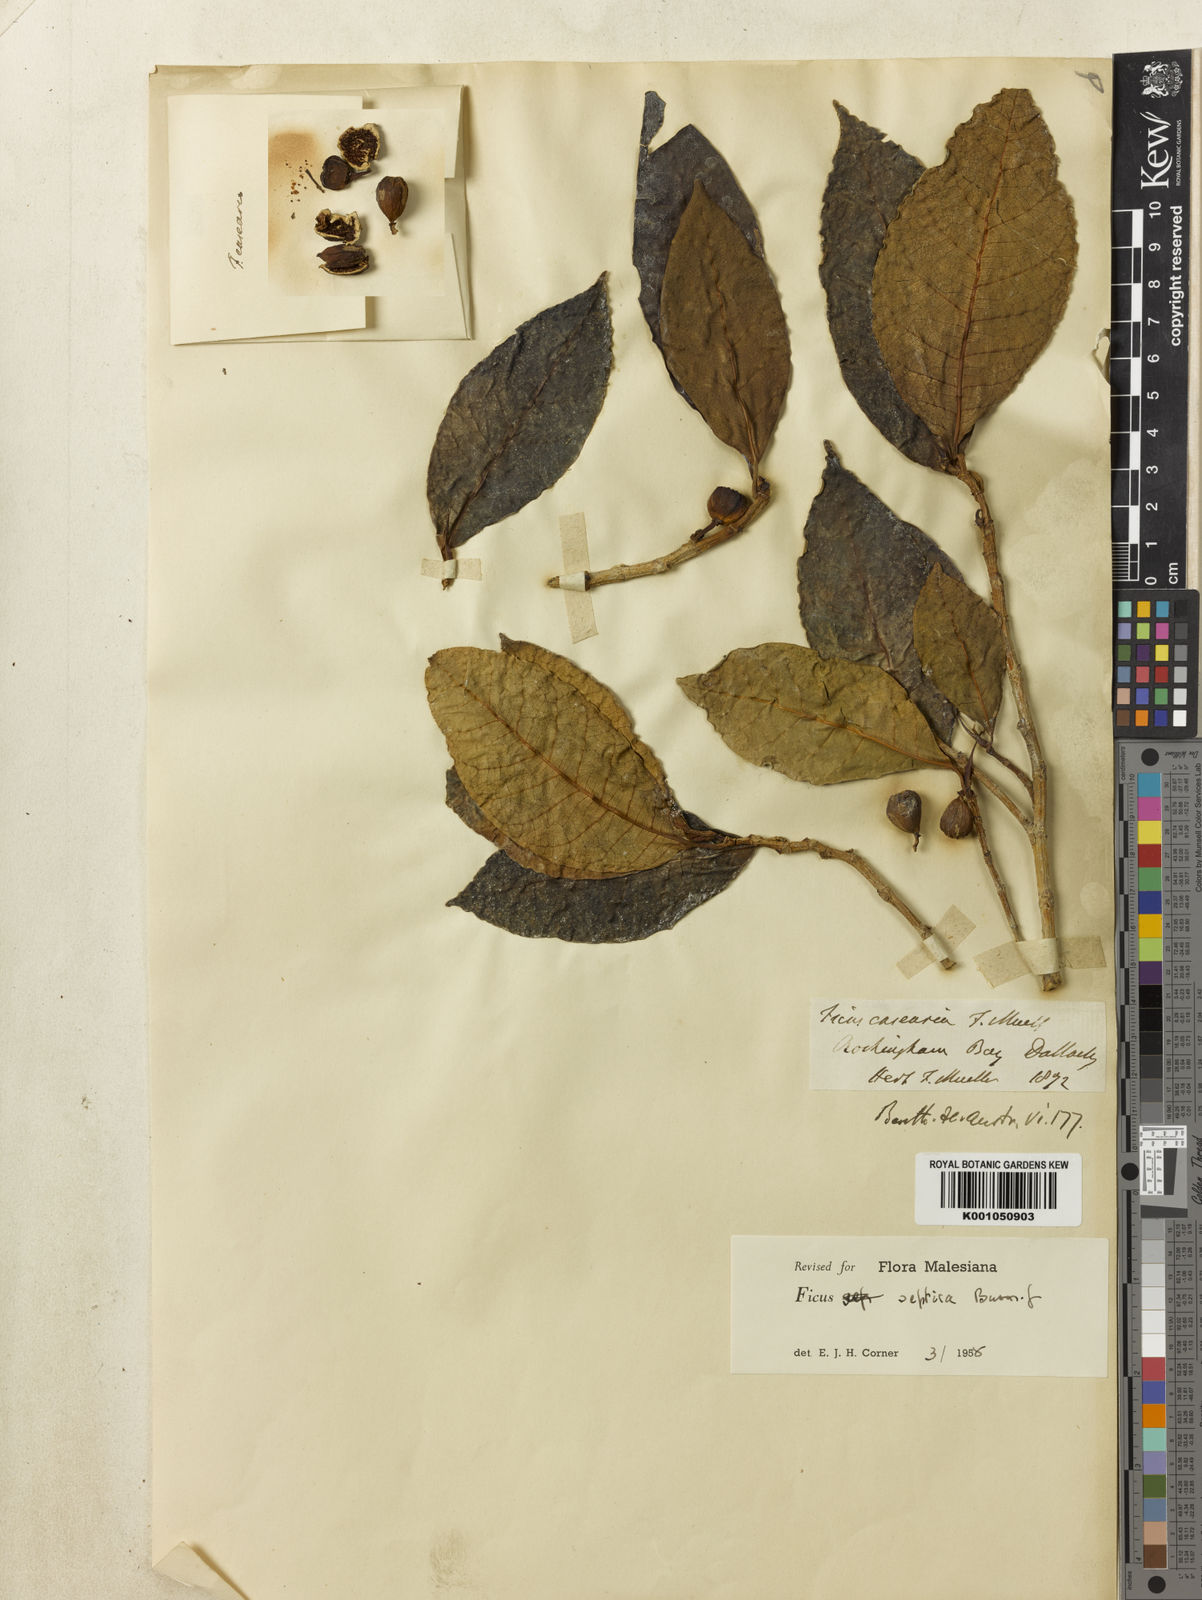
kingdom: Plantae
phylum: Tracheophyta
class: Magnoliopsida
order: Rosales
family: Moraceae
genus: Ficus
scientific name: Ficus septica
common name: Septic fig
